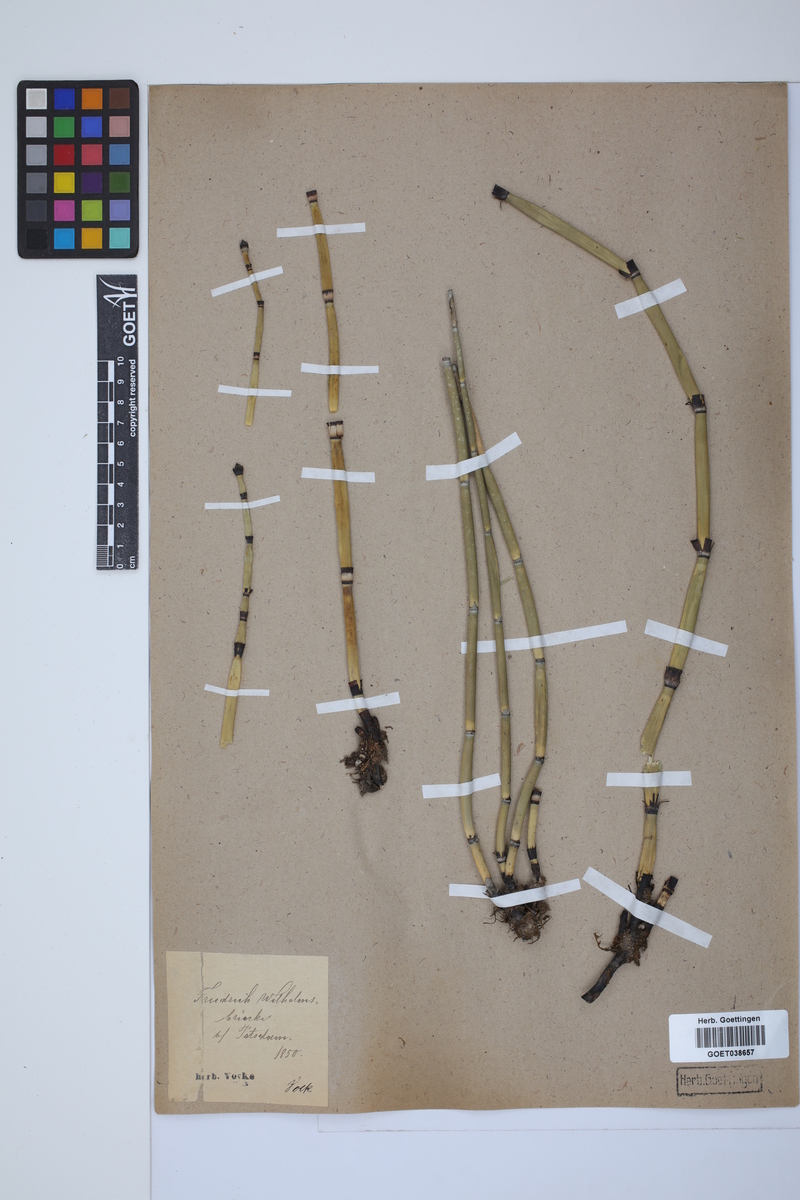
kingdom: Plantae
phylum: Tracheophyta
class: Polypodiopsida
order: Equisetales
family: Equisetaceae
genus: Equisetum
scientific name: Equisetum hyemale
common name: Rough horsetail
